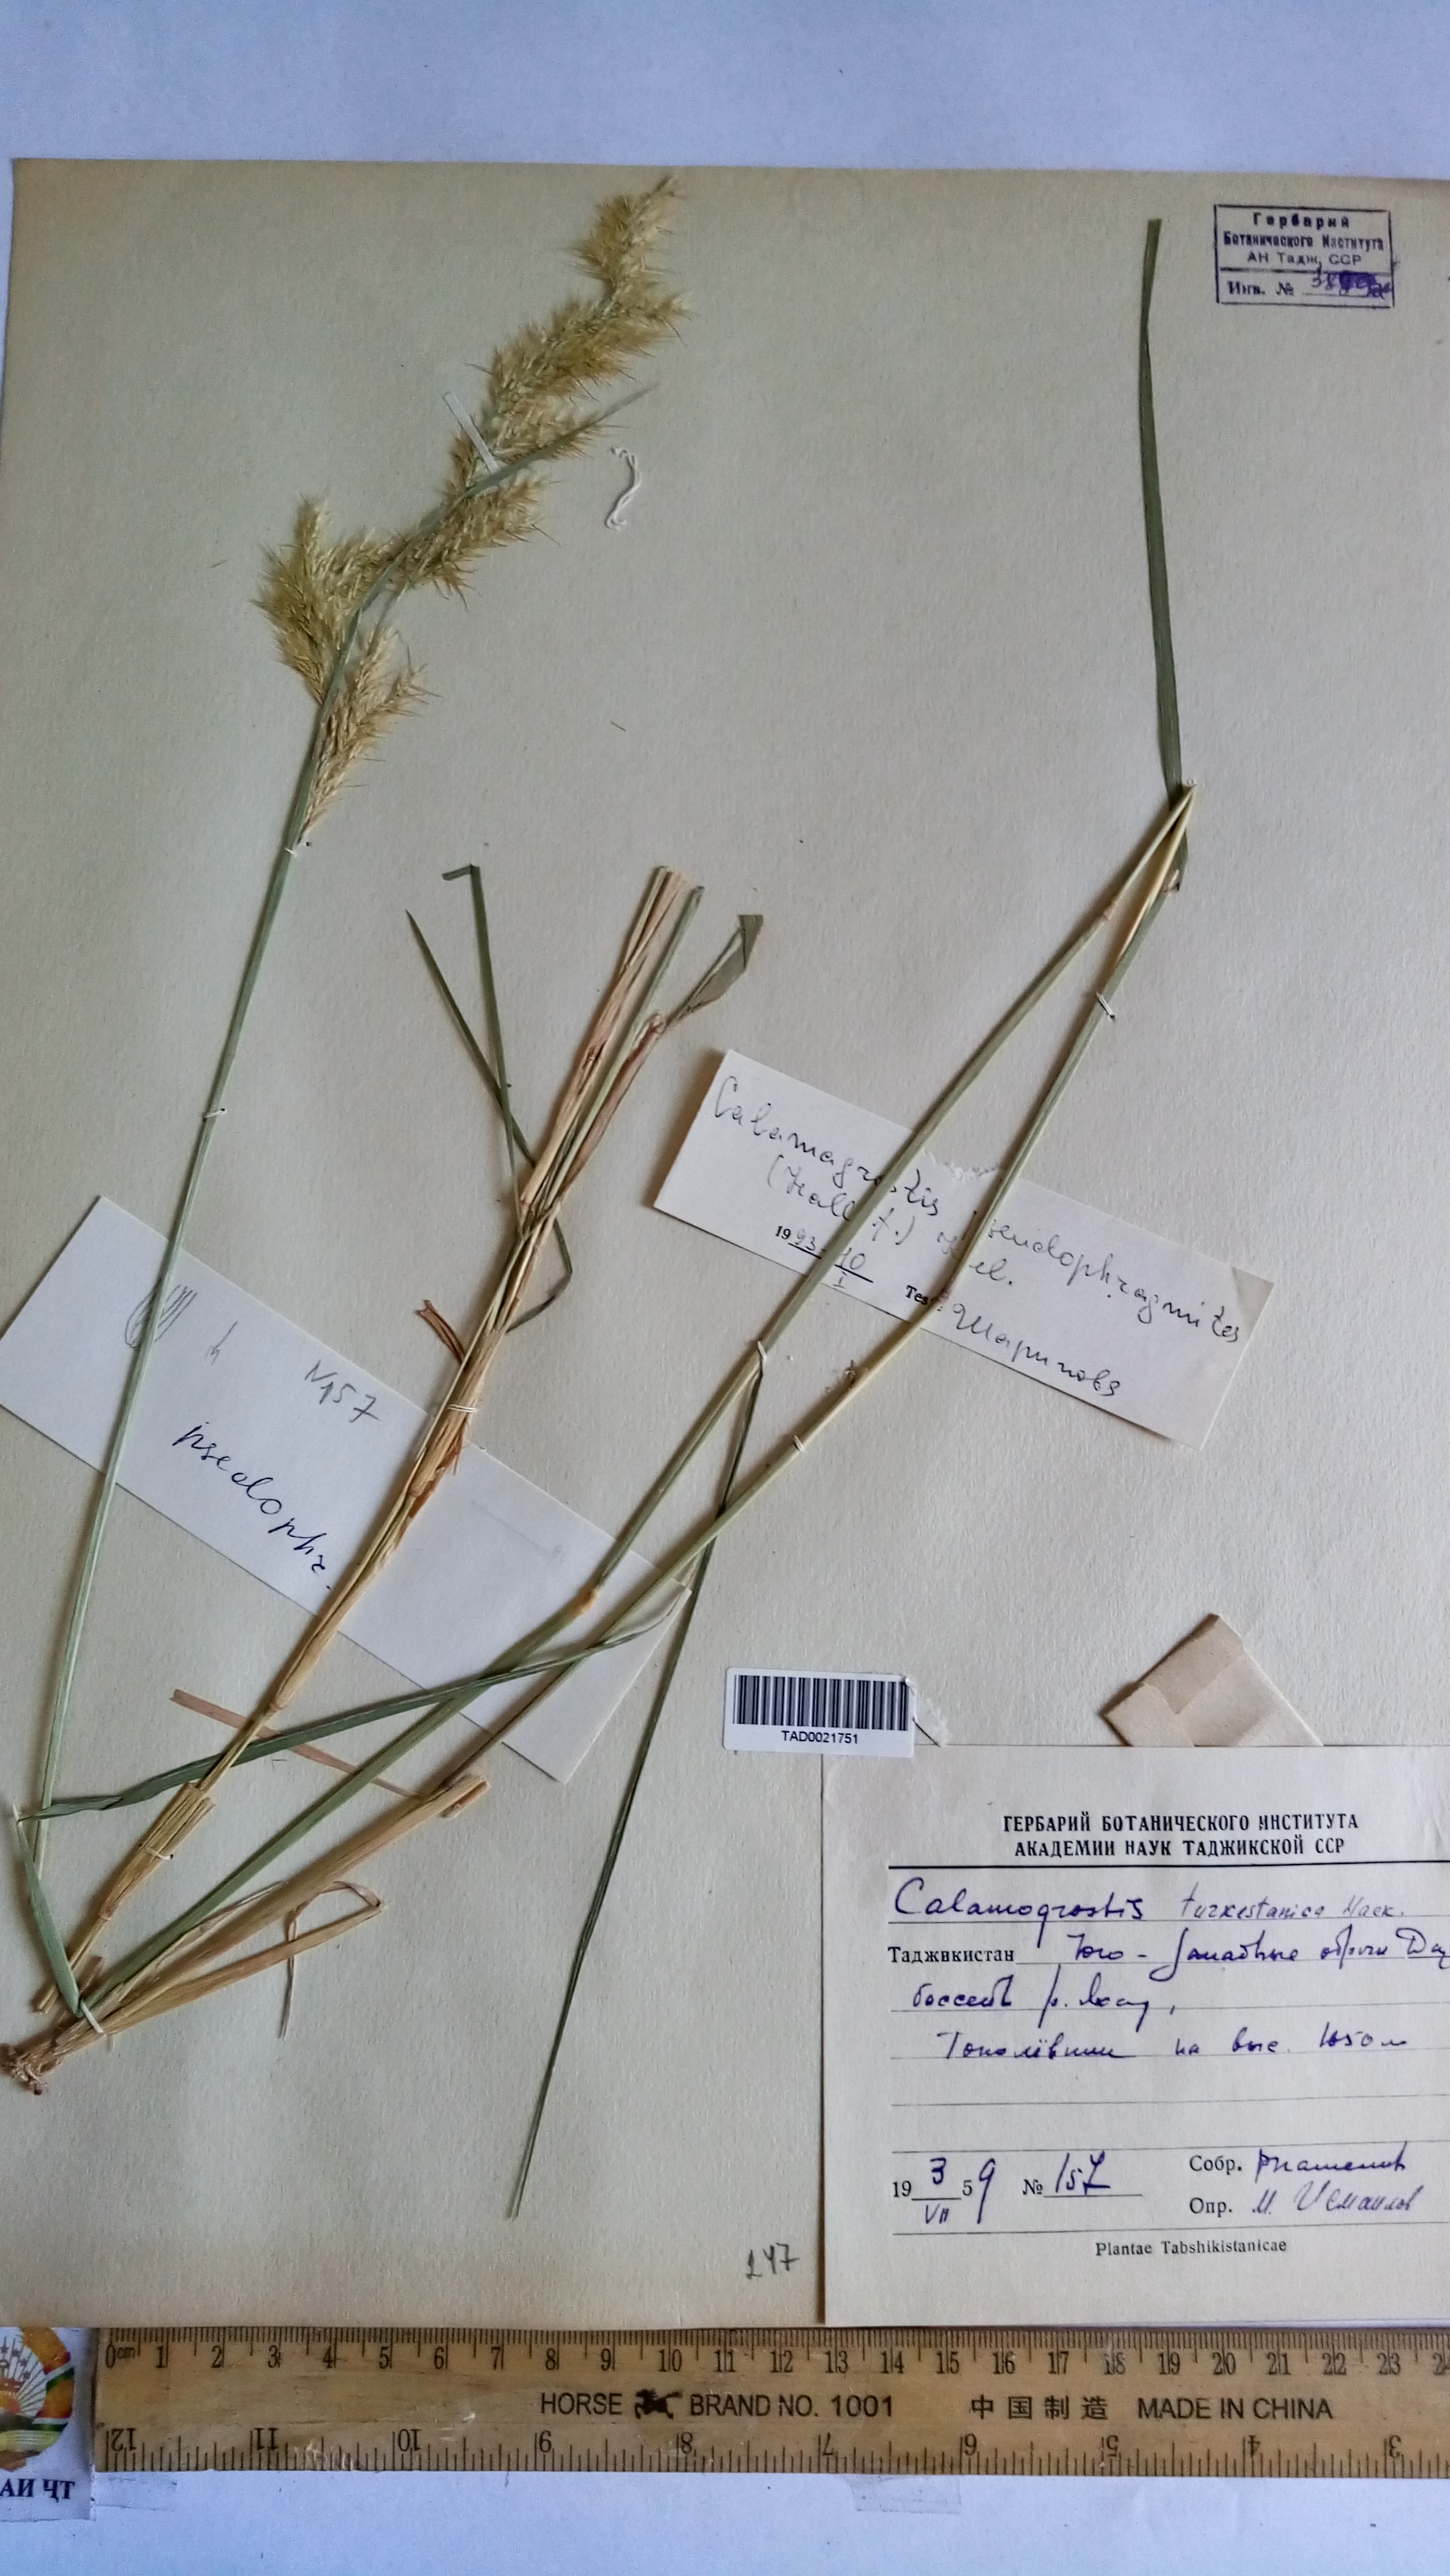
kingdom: Plantae
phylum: Tracheophyta
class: Liliopsida
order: Poales
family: Poaceae
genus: Calamagrostis
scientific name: Calamagrostis turkestanica
